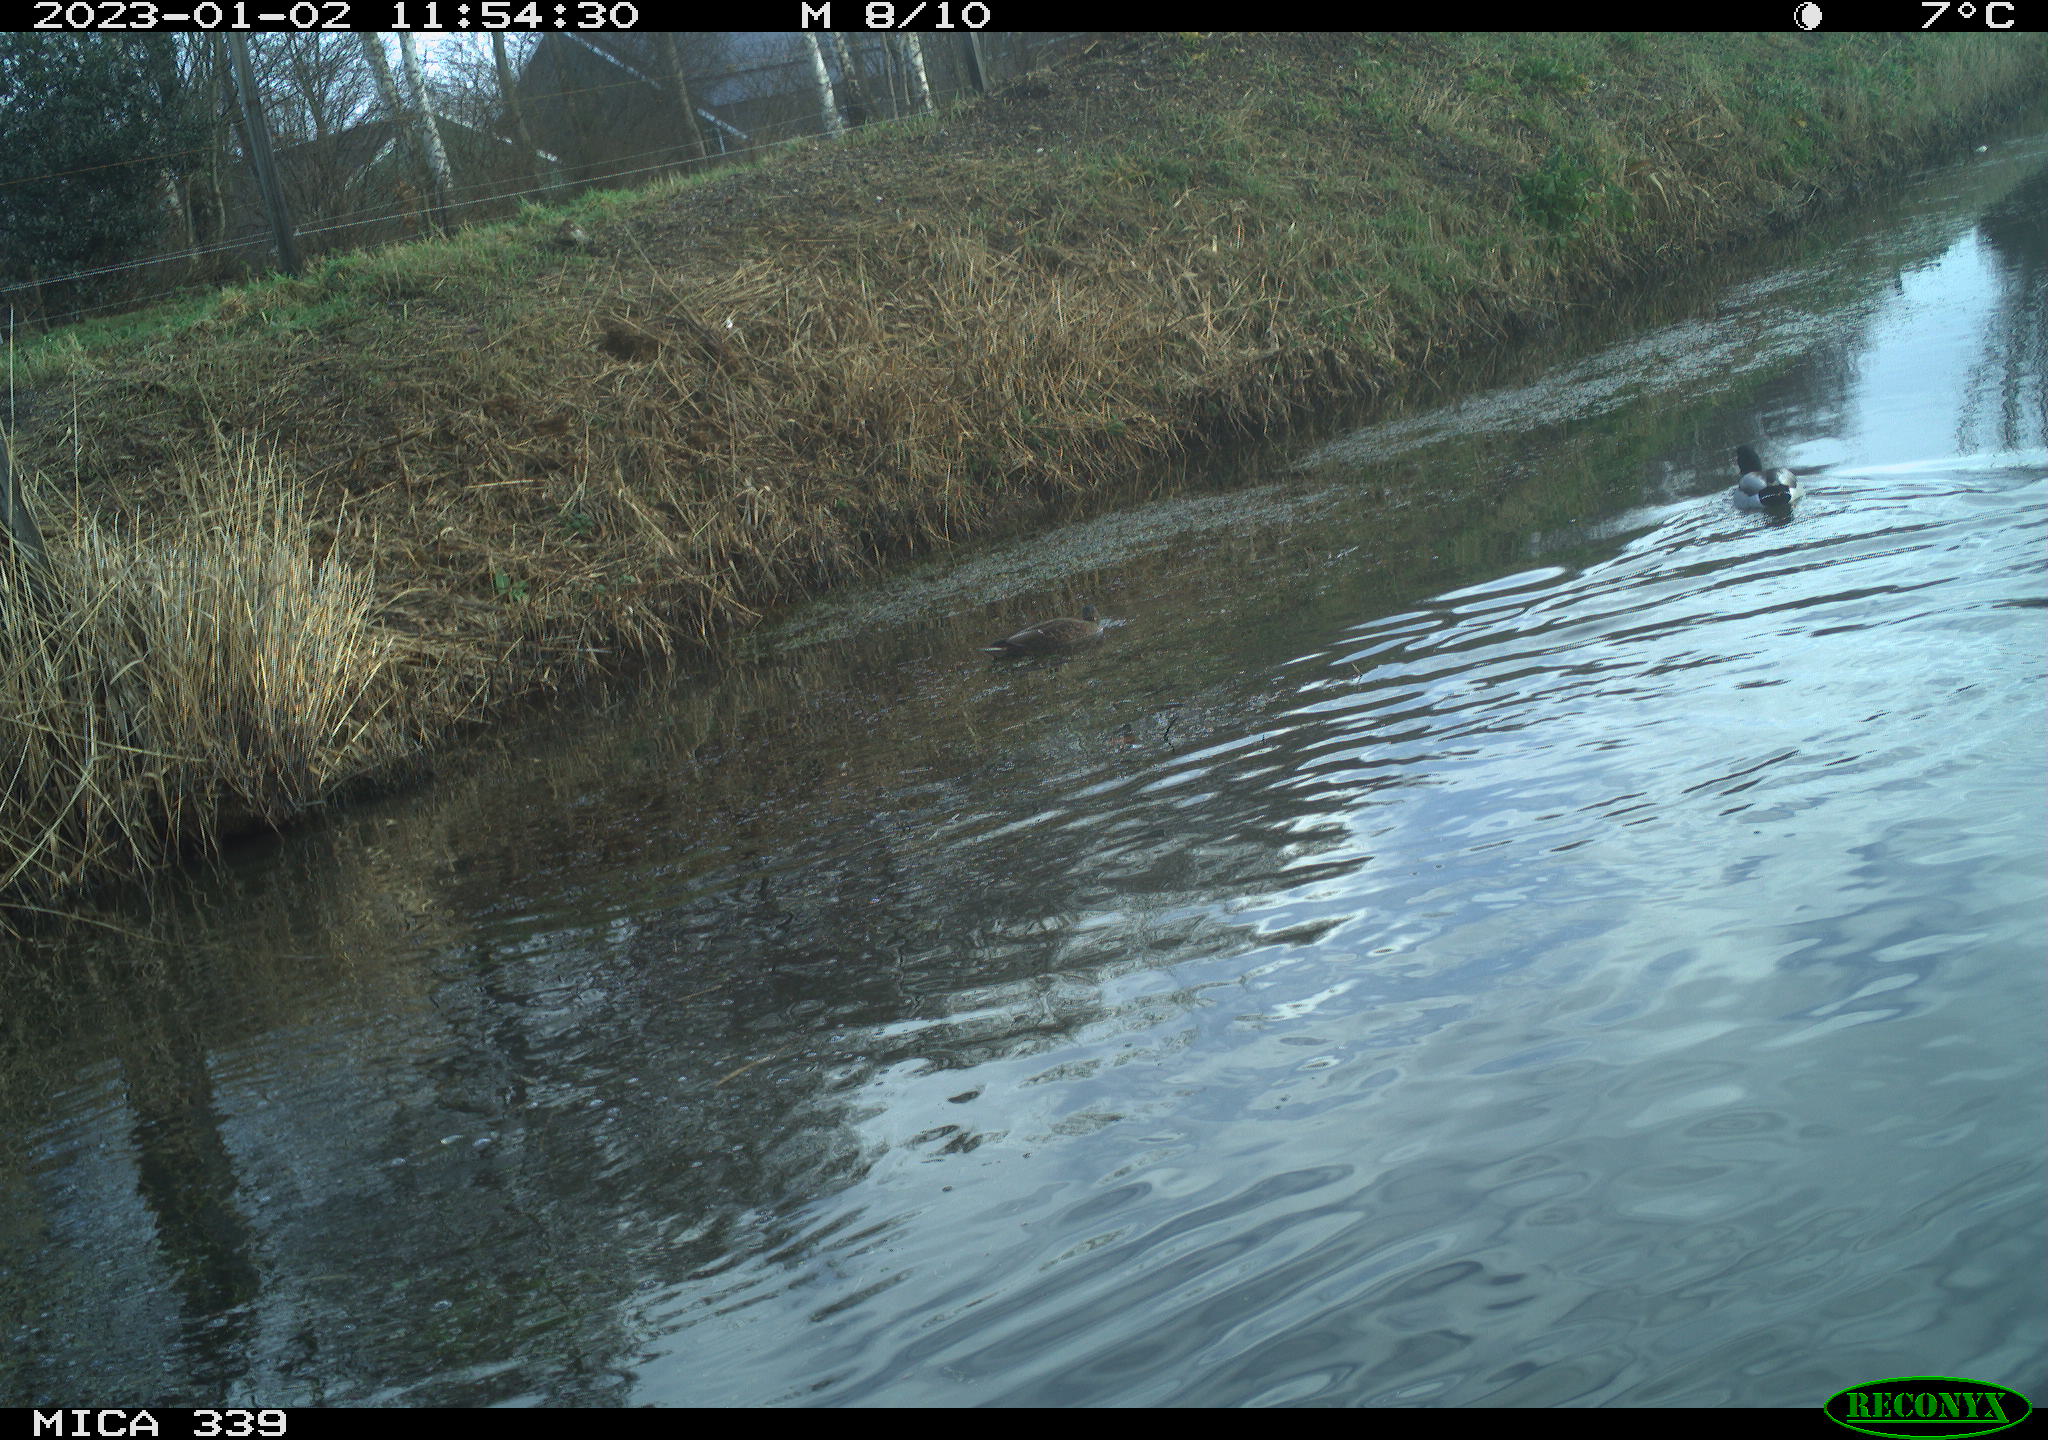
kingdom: Animalia
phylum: Chordata
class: Aves
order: Anseriformes
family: Anatidae
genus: Anas
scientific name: Anas
